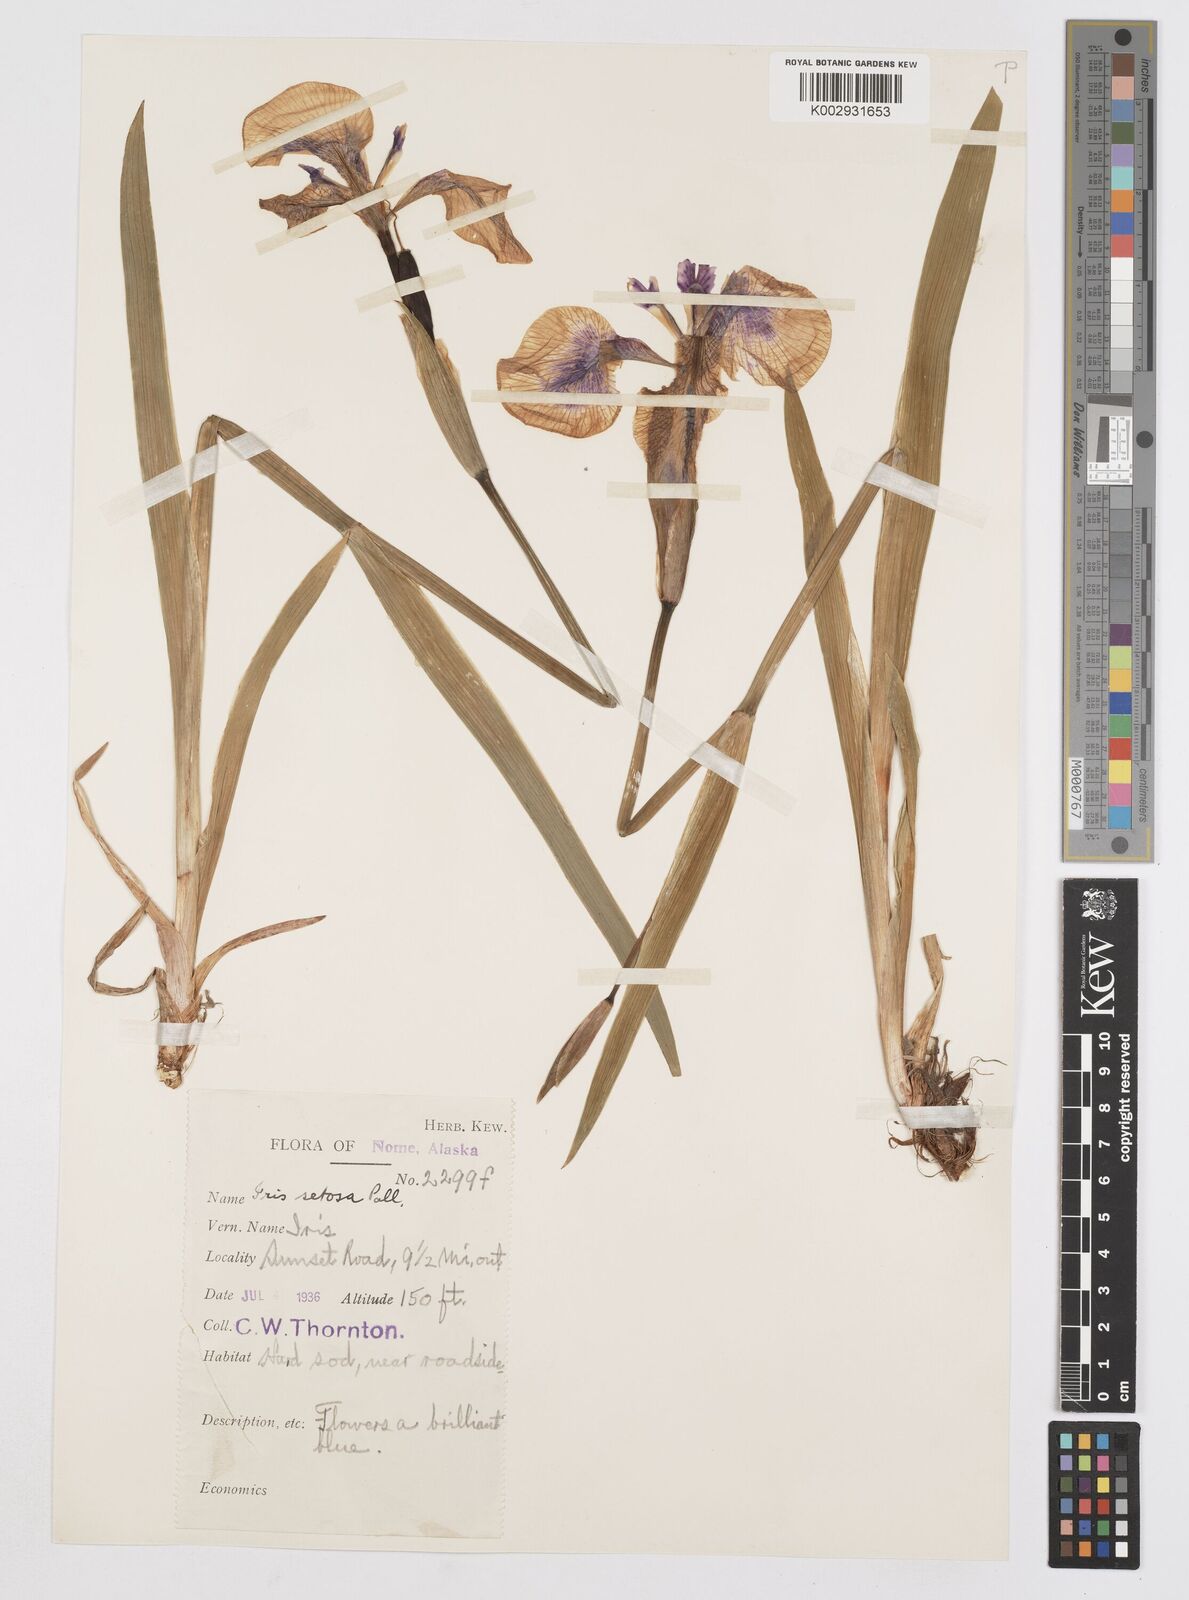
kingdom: Plantae
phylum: Tracheophyta
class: Liliopsida
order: Asparagales
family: Iridaceae
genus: Iris
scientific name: Iris setosa
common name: Arctic blue flag
